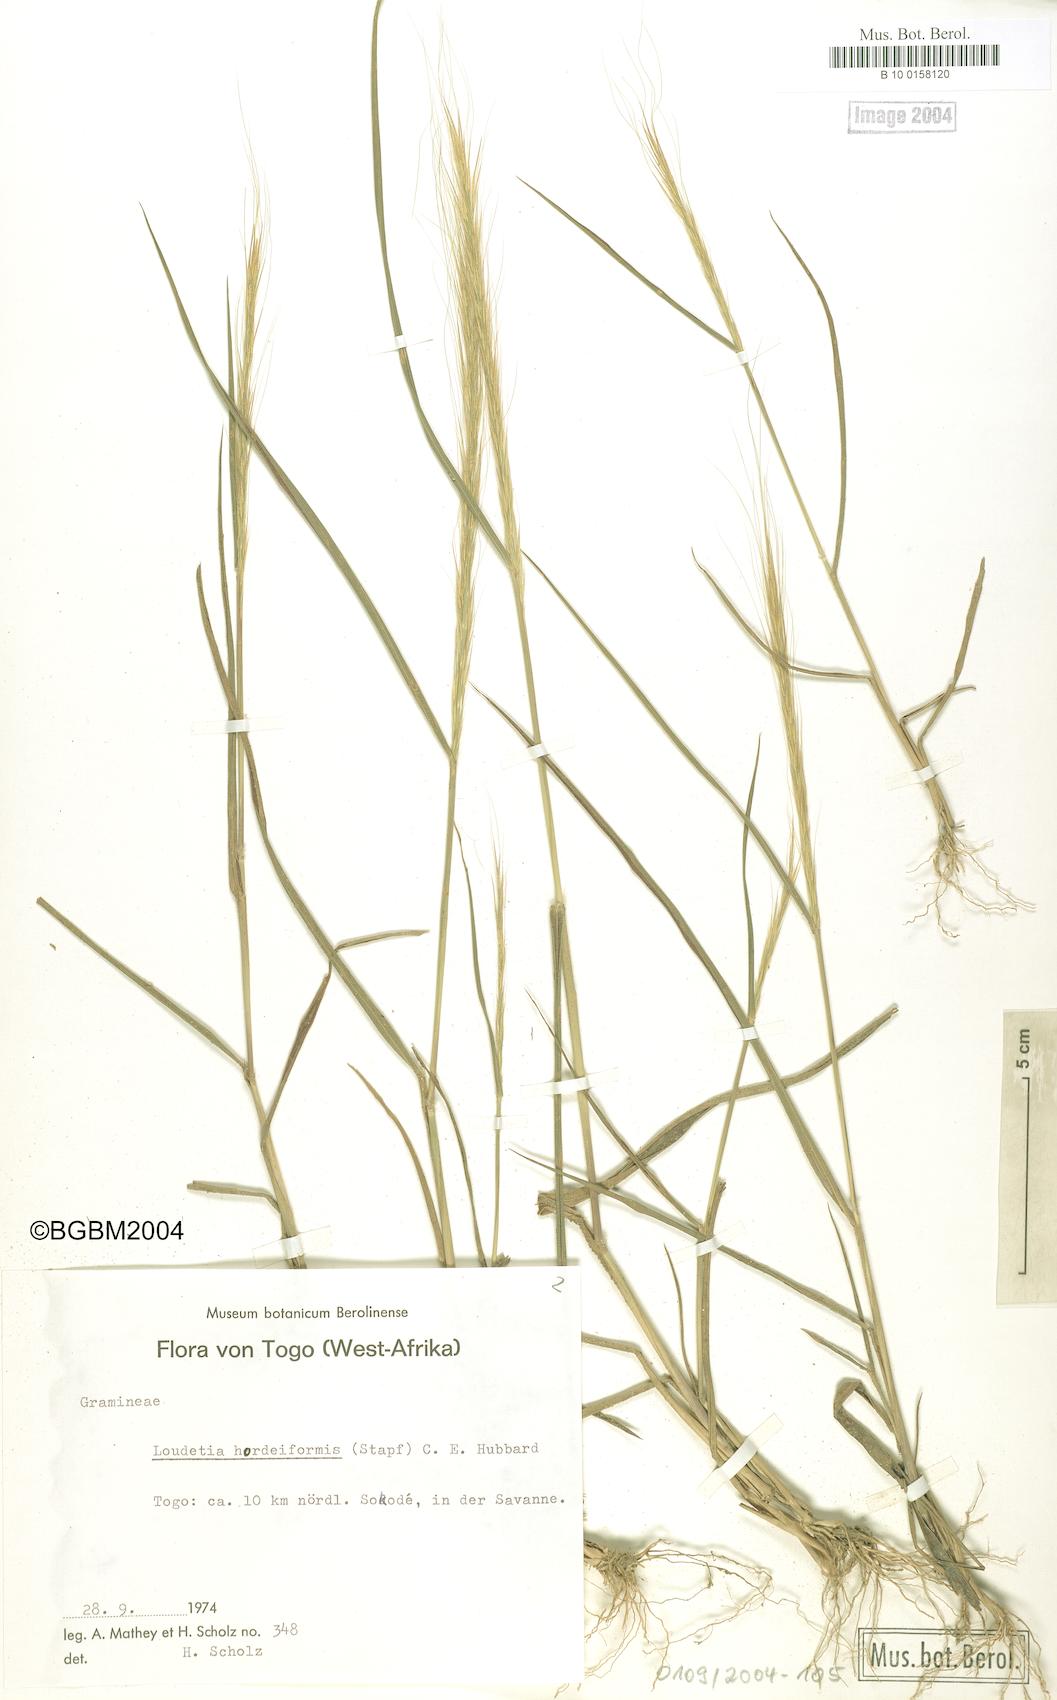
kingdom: Plantae
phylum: Tracheophyta
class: Liliopsida
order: Poales
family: Poaceae
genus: Loudetia
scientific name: Loudetia hordeiformis
